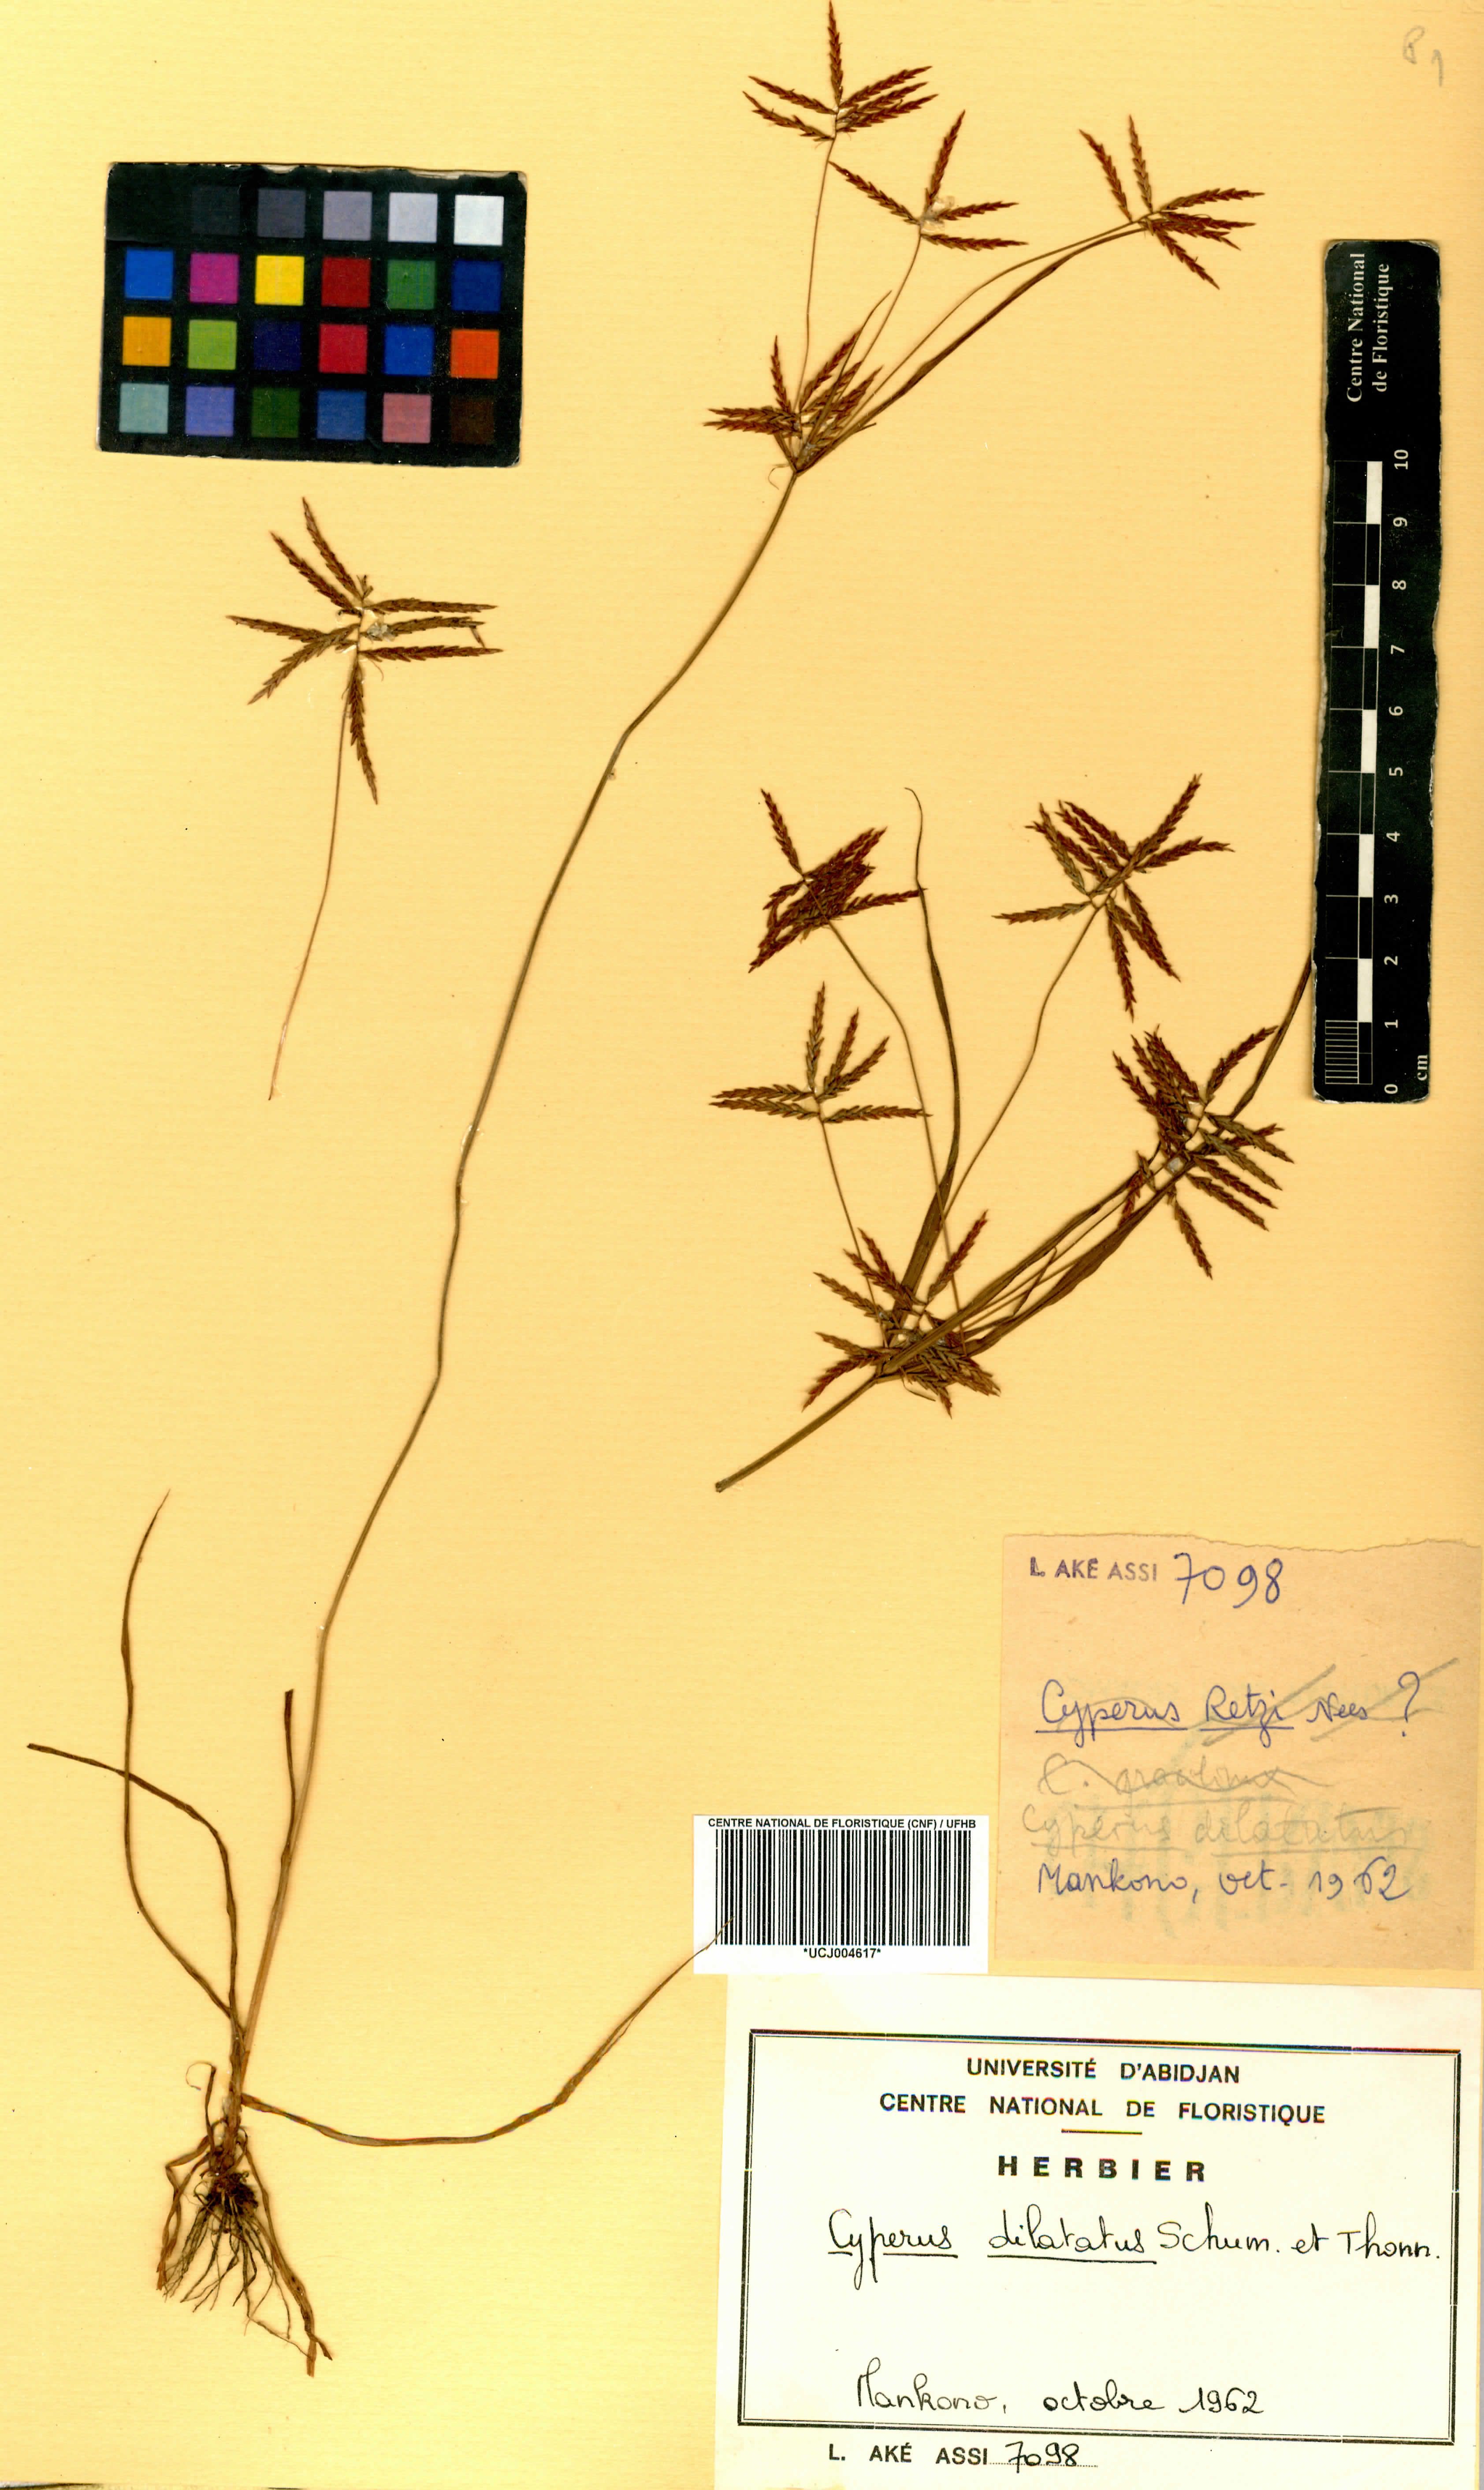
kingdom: Plantae
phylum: Tracheophyta
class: Liliopsida
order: Poales
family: Cyperaceae
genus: Cyperus
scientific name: Cyperus dilatatus
